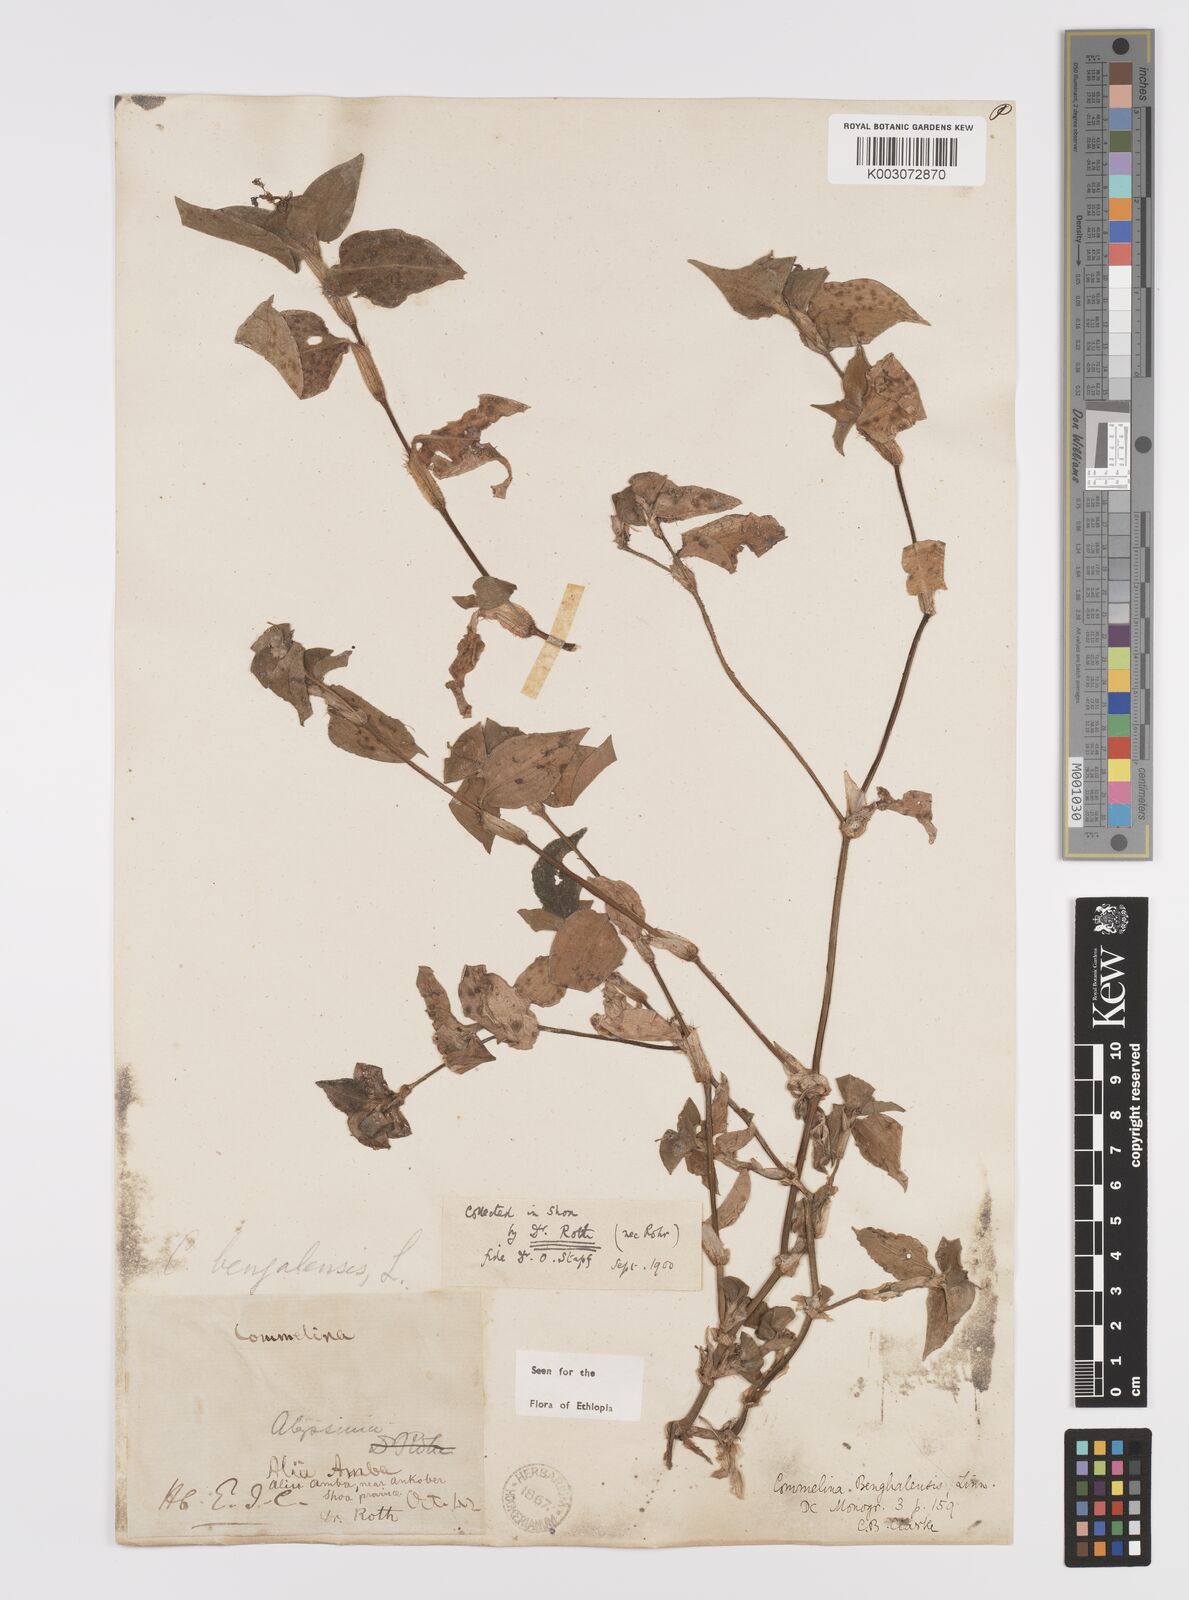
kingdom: Plantae
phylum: Tracheophyta
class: Liliopsida
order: Commelinales
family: Commelinaceae
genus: Commelina
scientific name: Commelina benghalensis
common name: Jio
